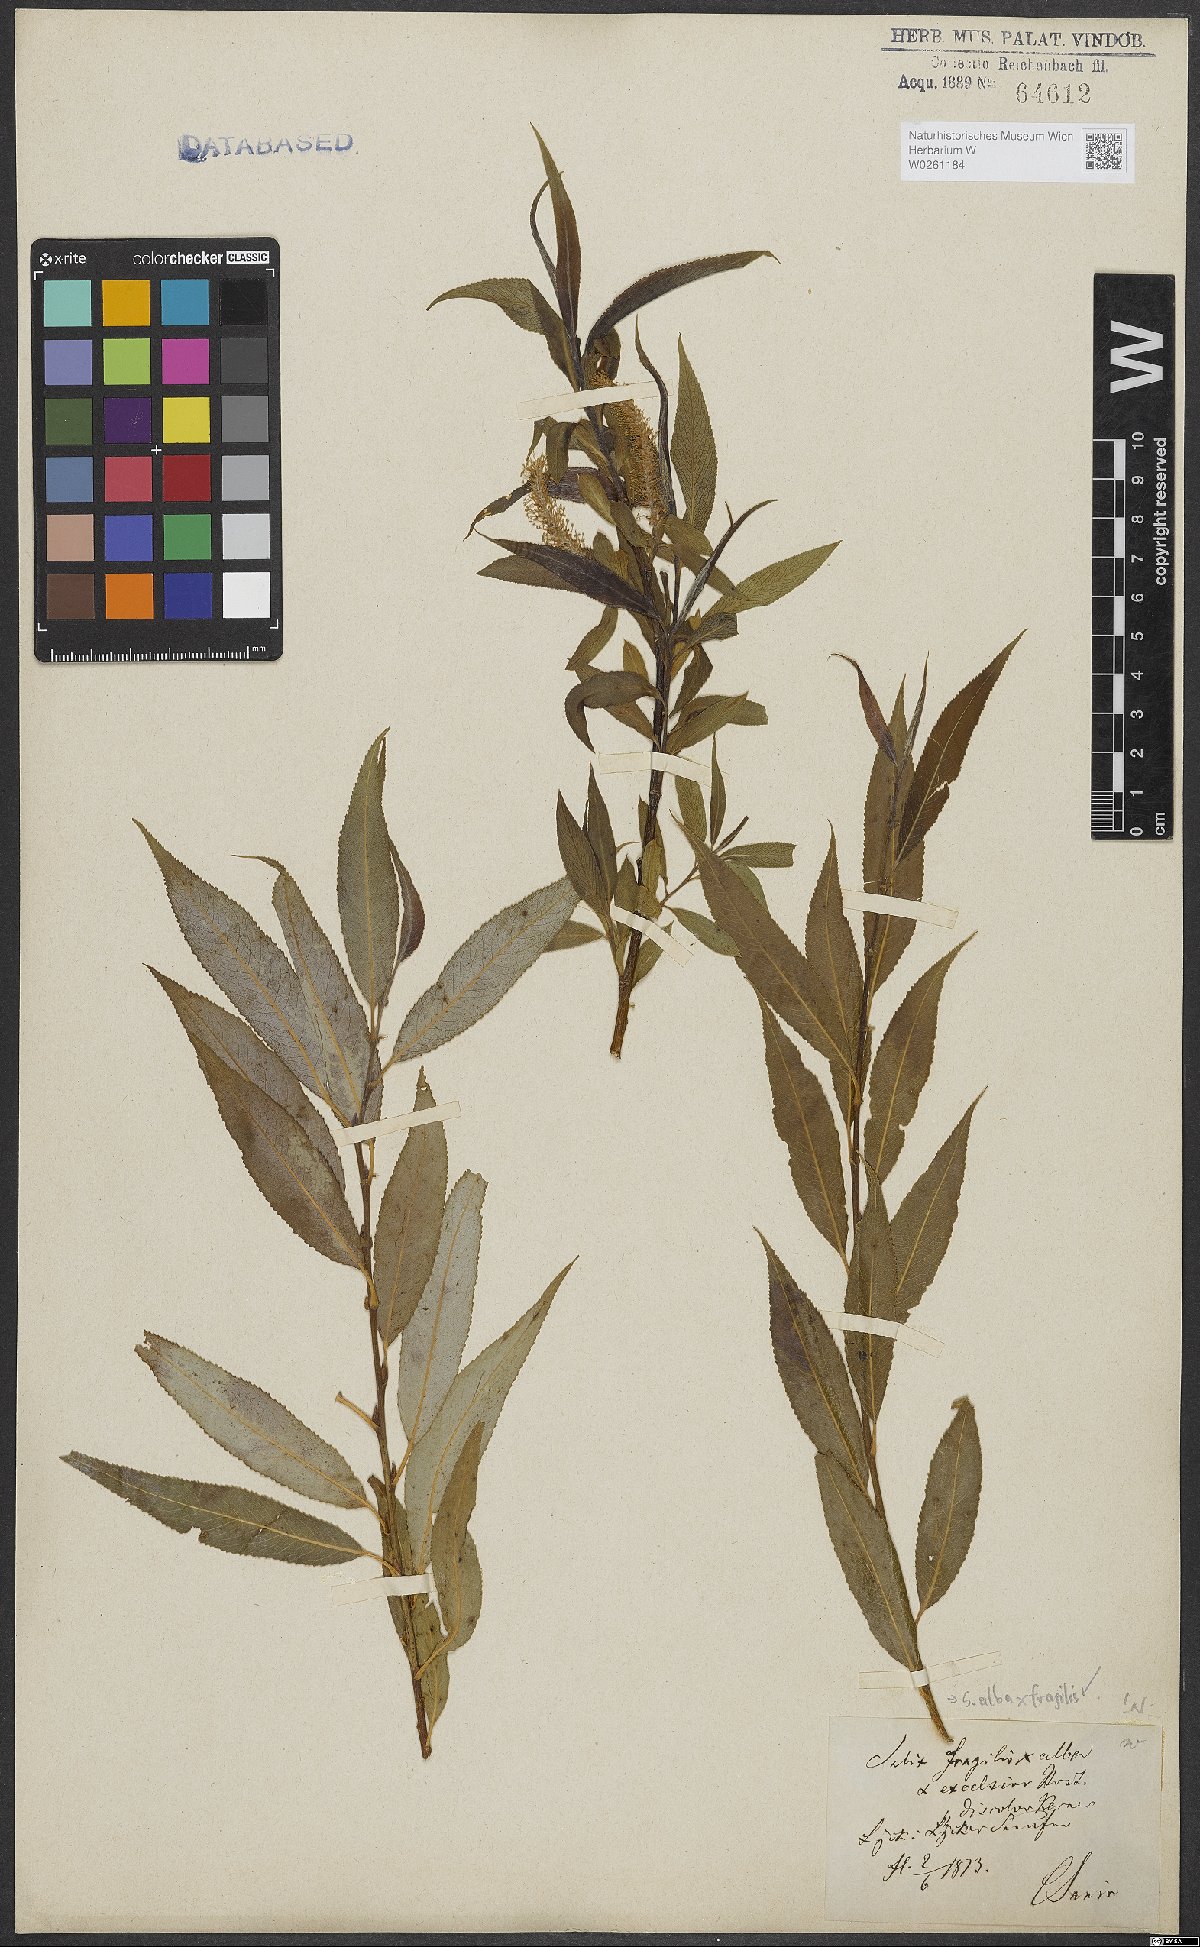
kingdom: Plantae
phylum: Tracheophyta
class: Magnoliopsida
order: Malpighiales
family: Salicaceae
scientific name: Salicaceae
